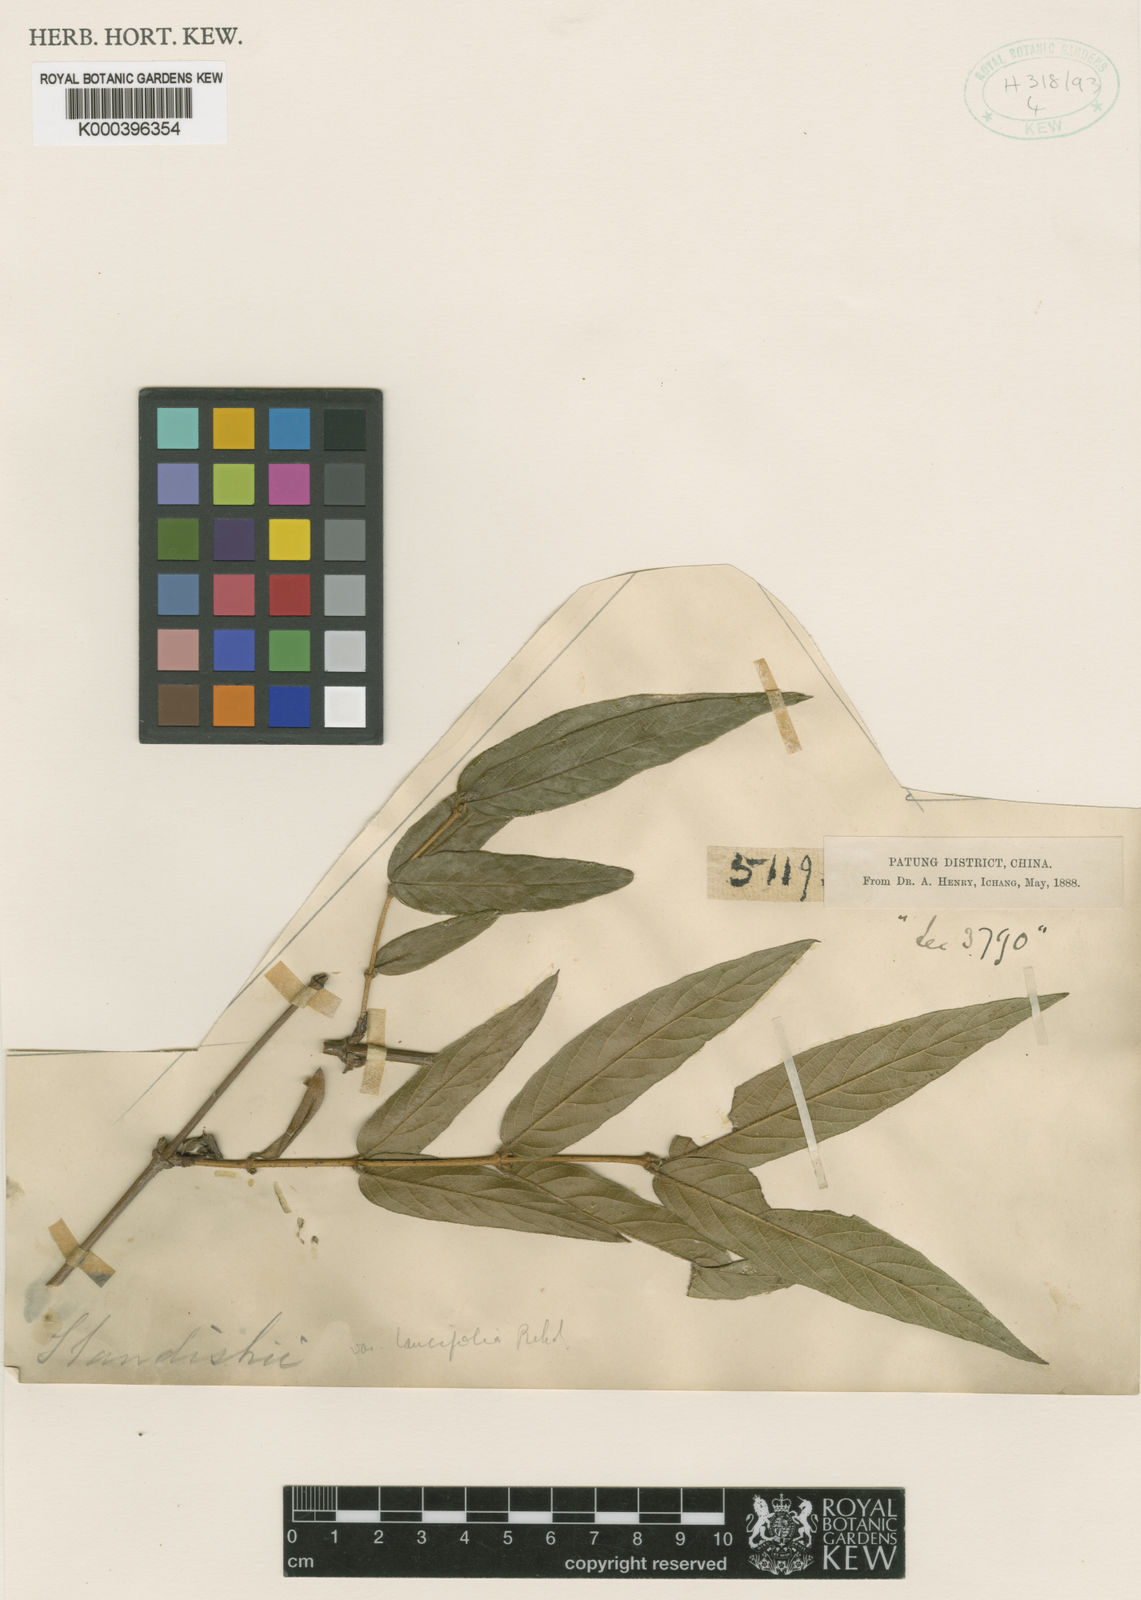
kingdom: Plantae
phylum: Tracheophyta
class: Magnoliopsida
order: Dipsacales
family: Caprifoliaceae
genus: Lonicera
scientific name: Lonicera fragrantissima
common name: Fragrant honeysuckle
